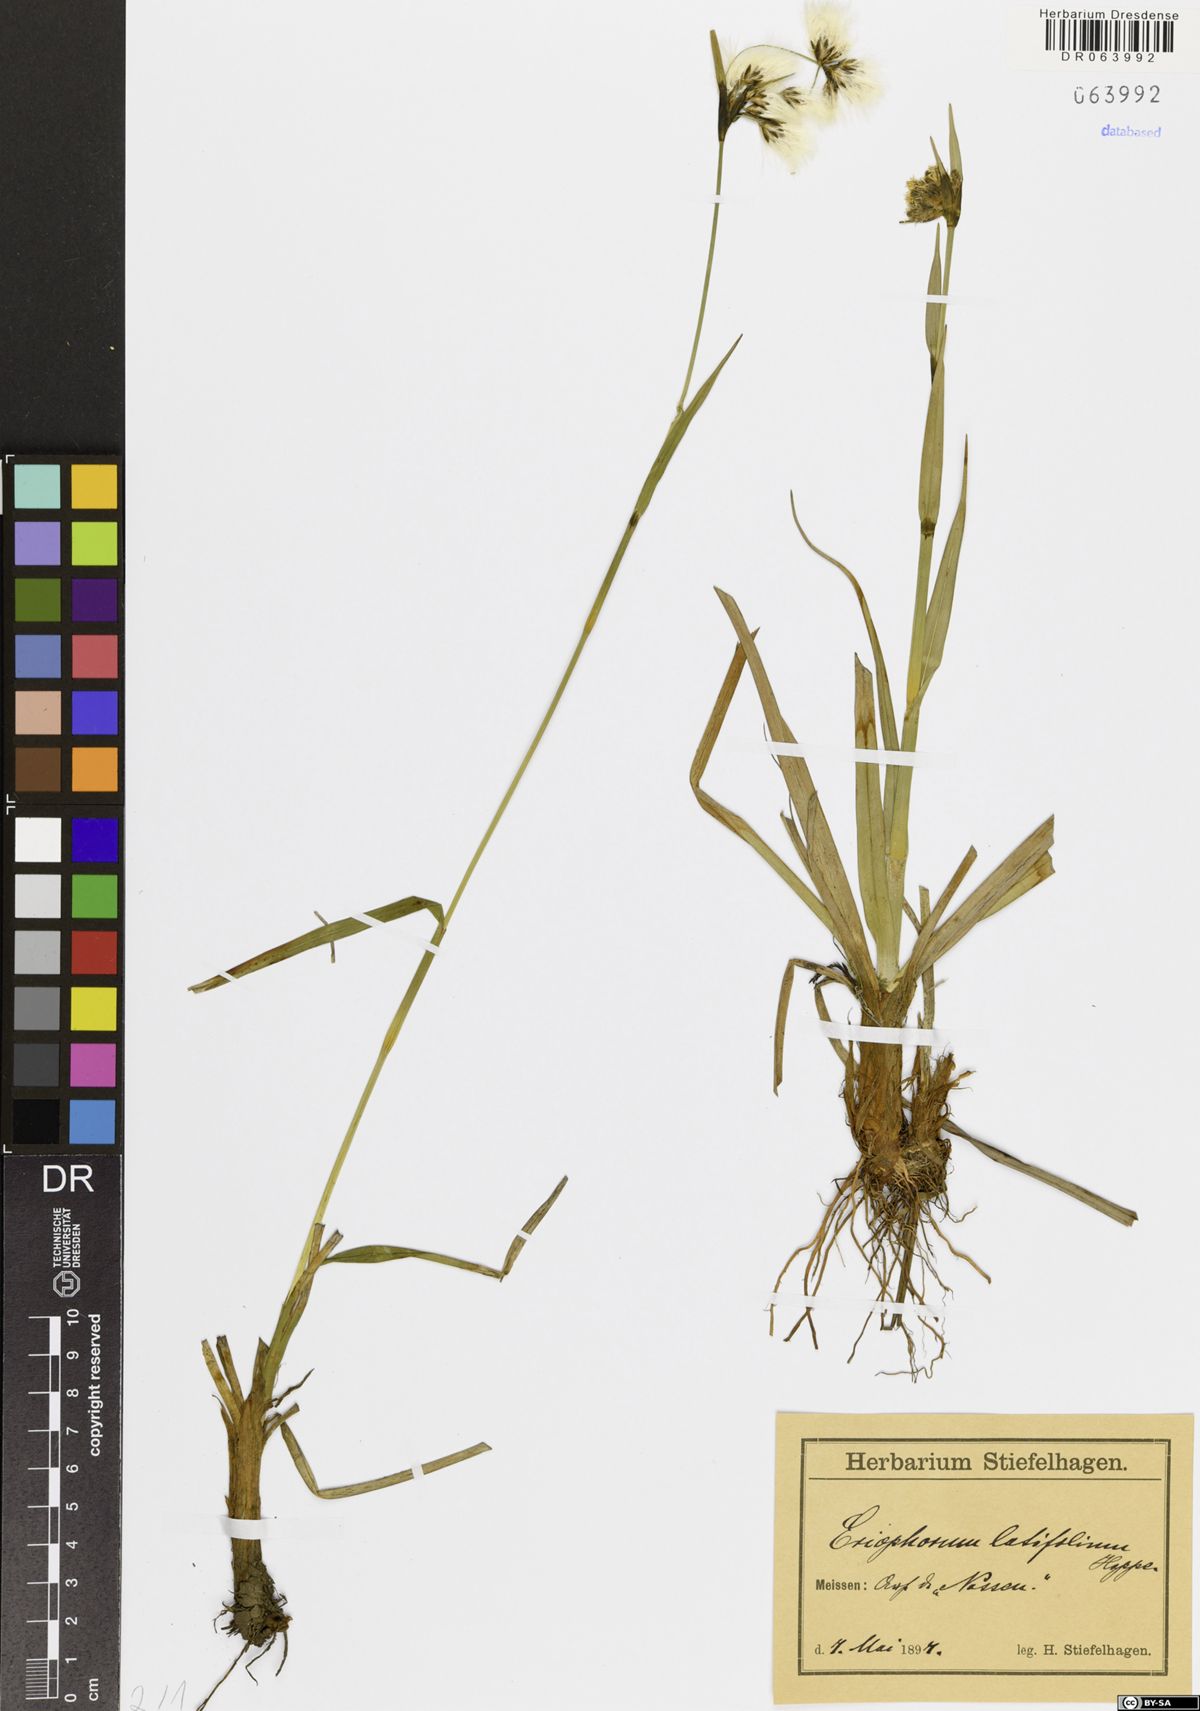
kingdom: Plantae
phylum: Tracheophyta
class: Liliopsida
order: Poales
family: Cyperaceae
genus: Eriophorum
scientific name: Eriophorum latifolium
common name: Broad-leaved cottongrass
